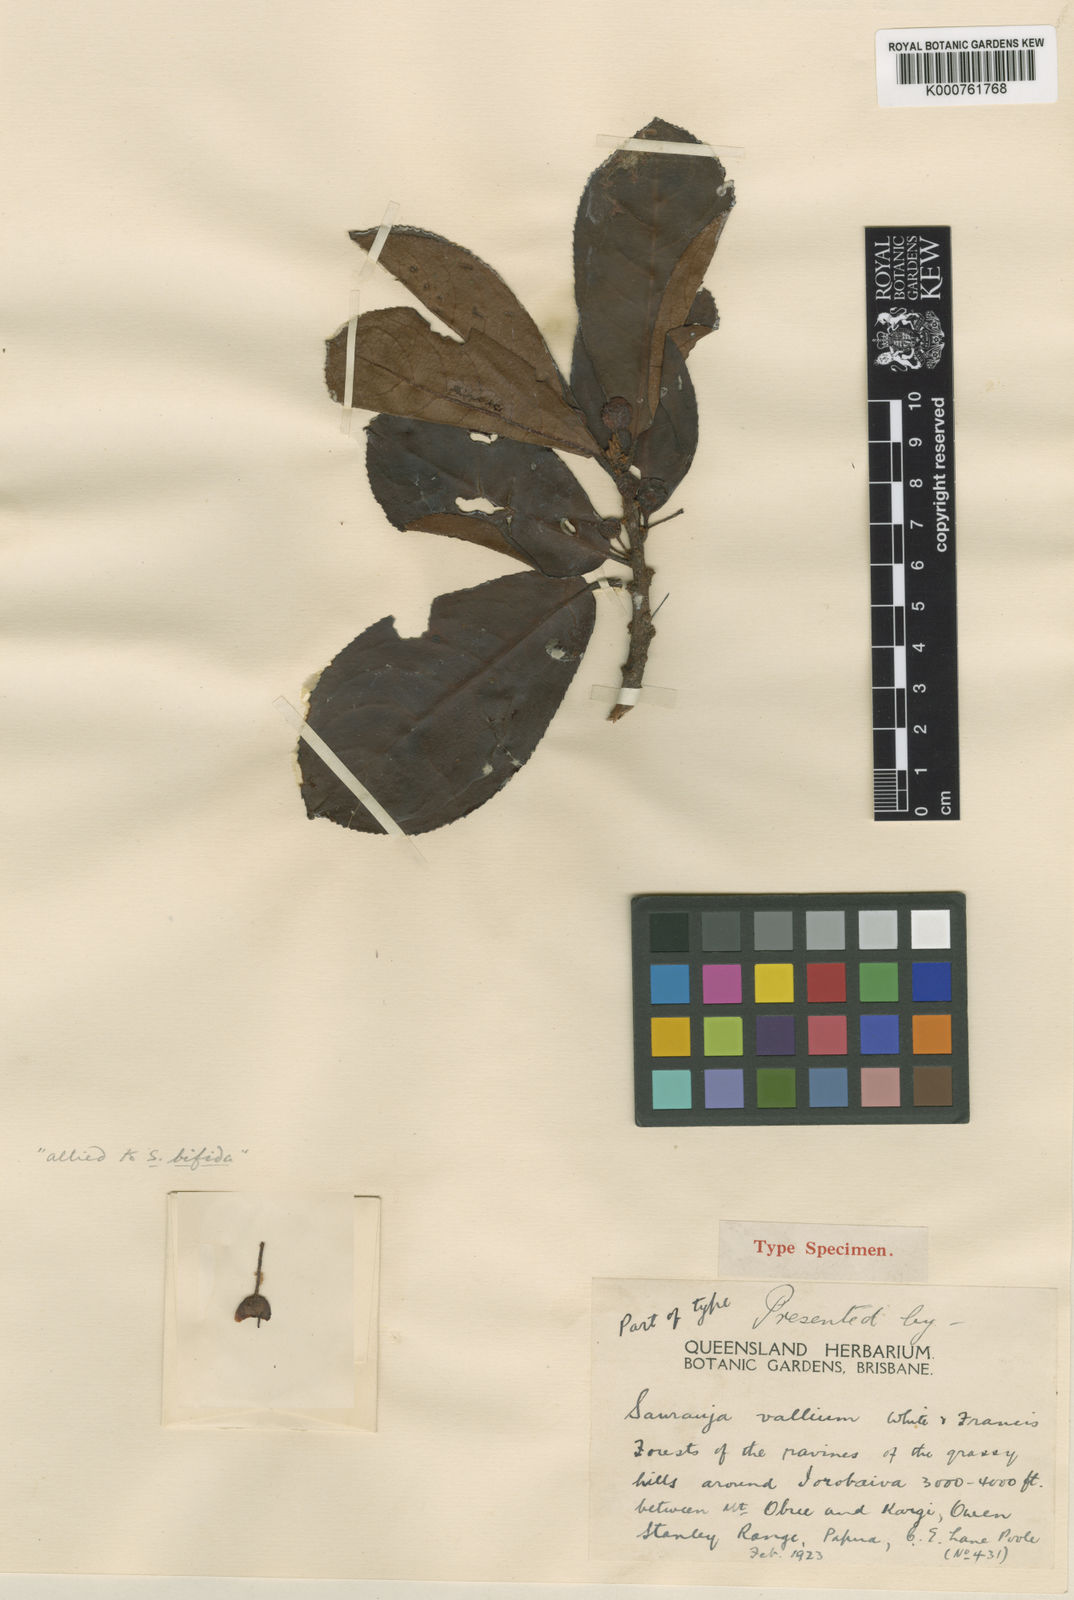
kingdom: Plantae
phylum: Tracheophyta
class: Magnoliopsida
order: Ericales
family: Actinidiaceae
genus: Saurauia
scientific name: Saurauia vallium
